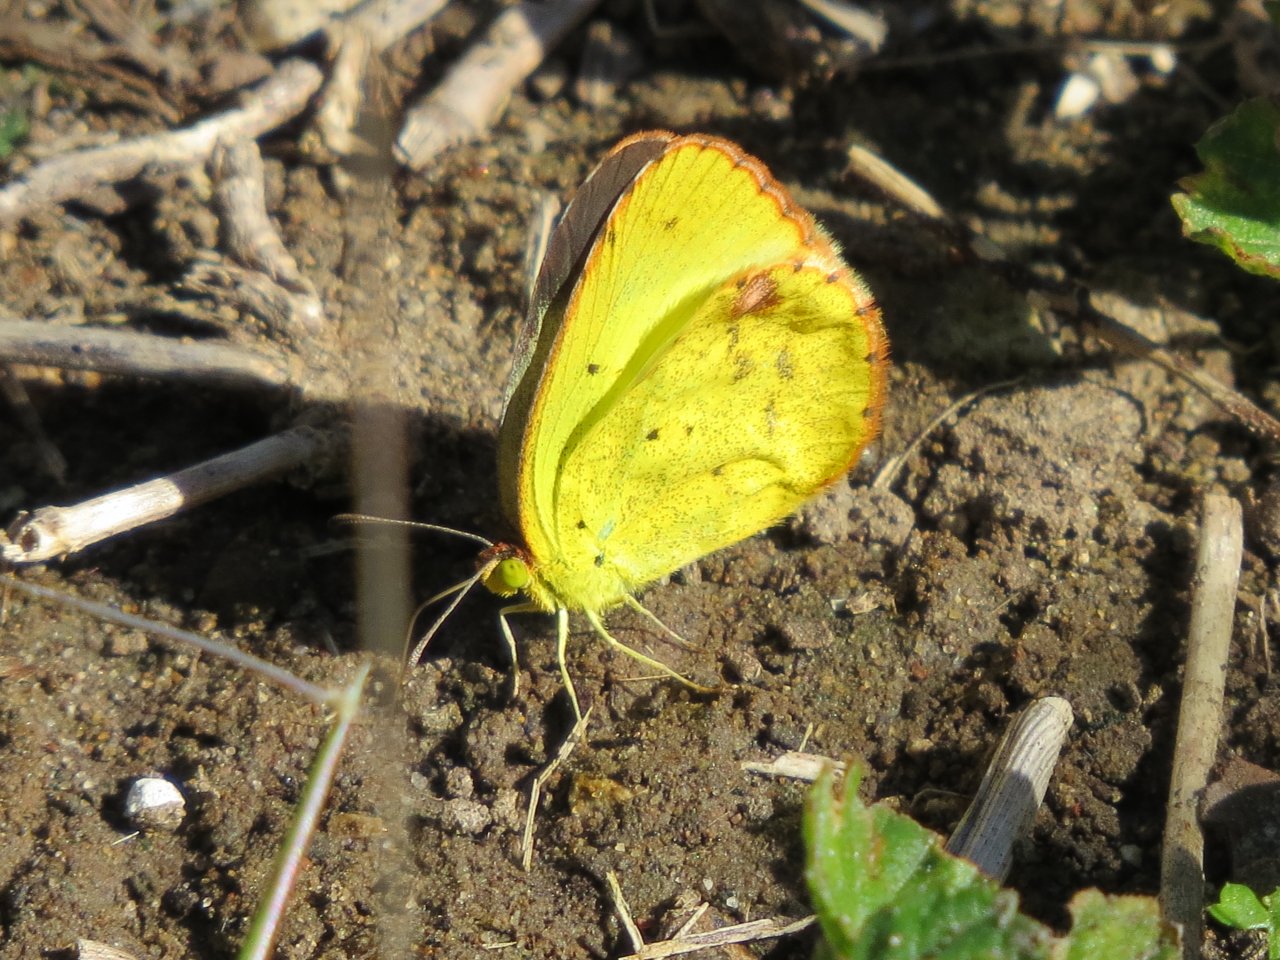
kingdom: Animalia
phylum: Arthropoda
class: Insecta
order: Lepidoptera
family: Pieridae
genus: Pyrisitia
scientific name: Pyrisitia lisa
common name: Little Yellow
